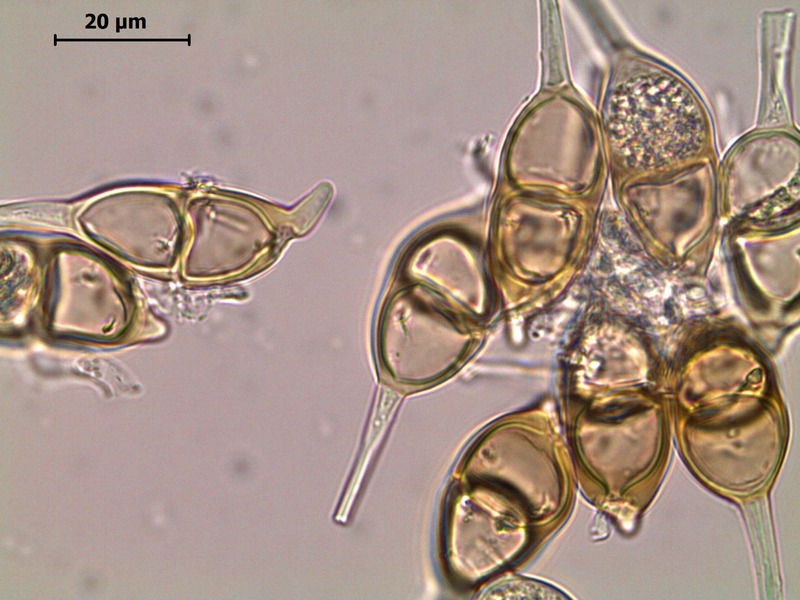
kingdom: Fungi
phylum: Basidiomycota
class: Pucciniomycetes
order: Pucciniales
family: Pucciniaceae
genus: Puccinia
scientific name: Puccinia salviae
